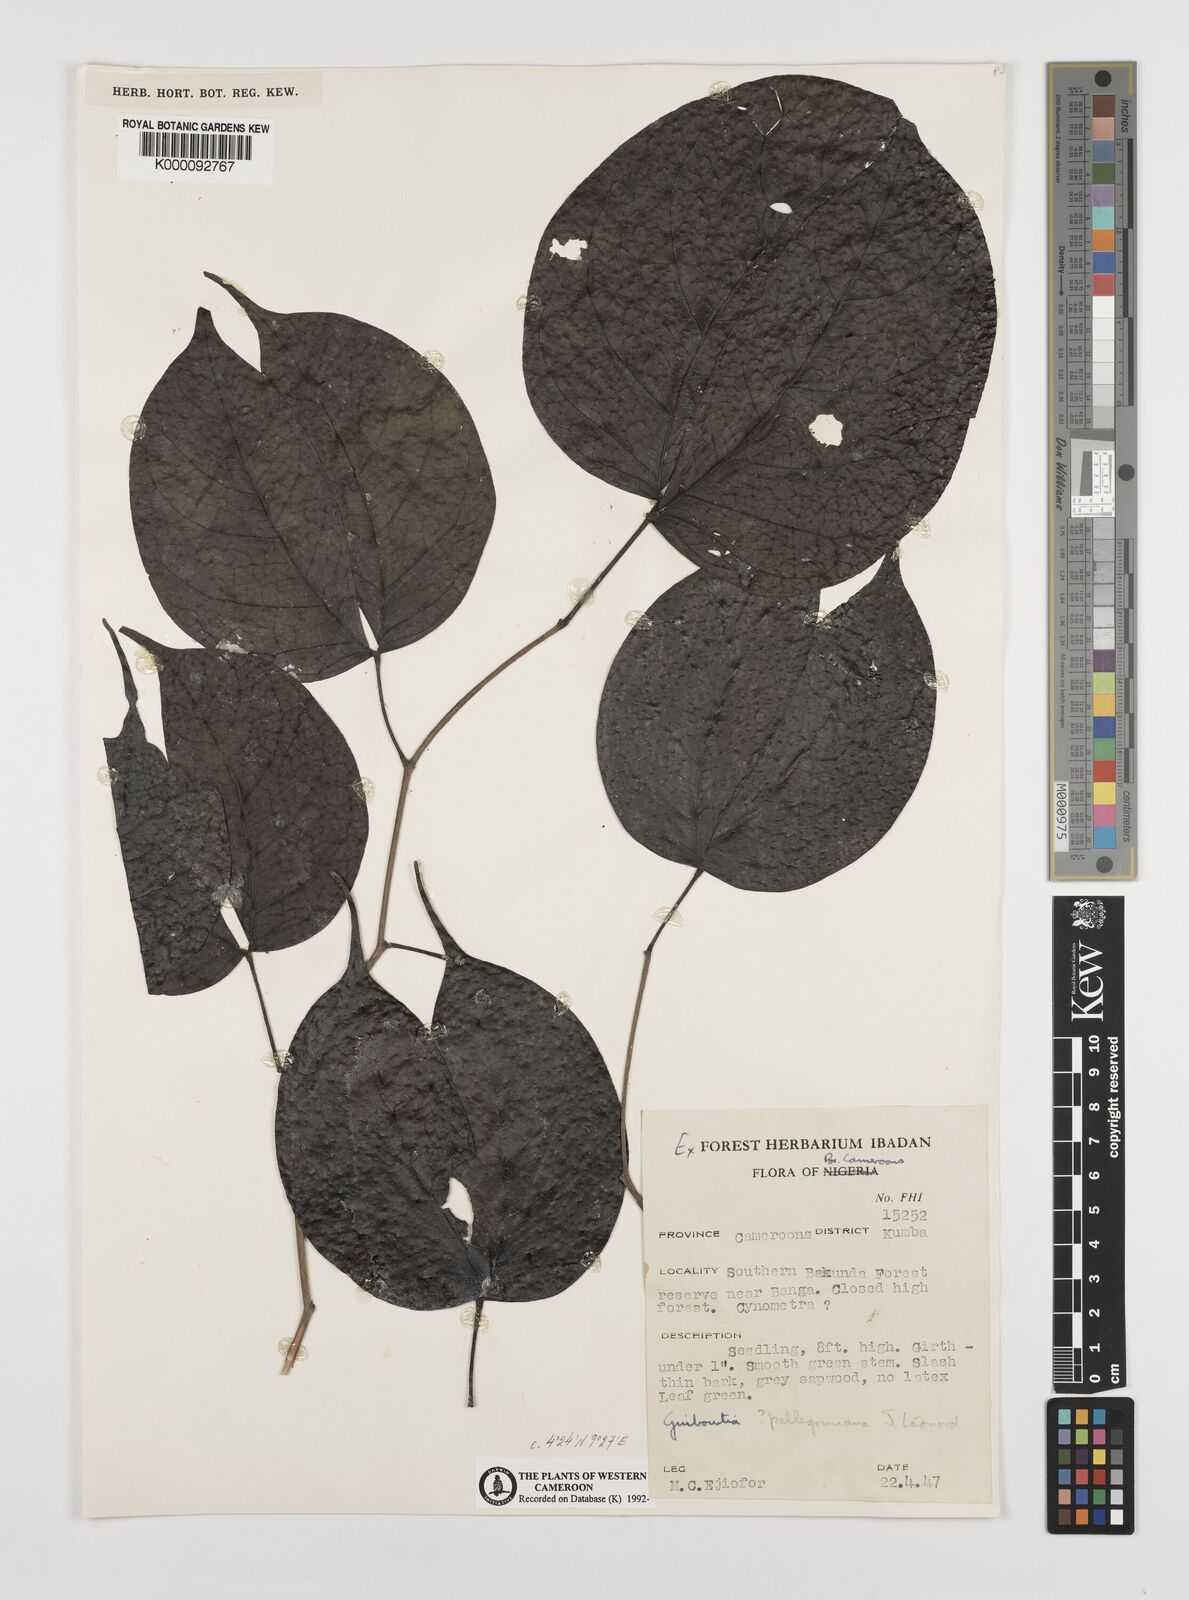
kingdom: Plantae
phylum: Tracheophyta
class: Magnoliopsida
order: Fabales
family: Fabaceae
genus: Guibourtia
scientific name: Guibourtia
